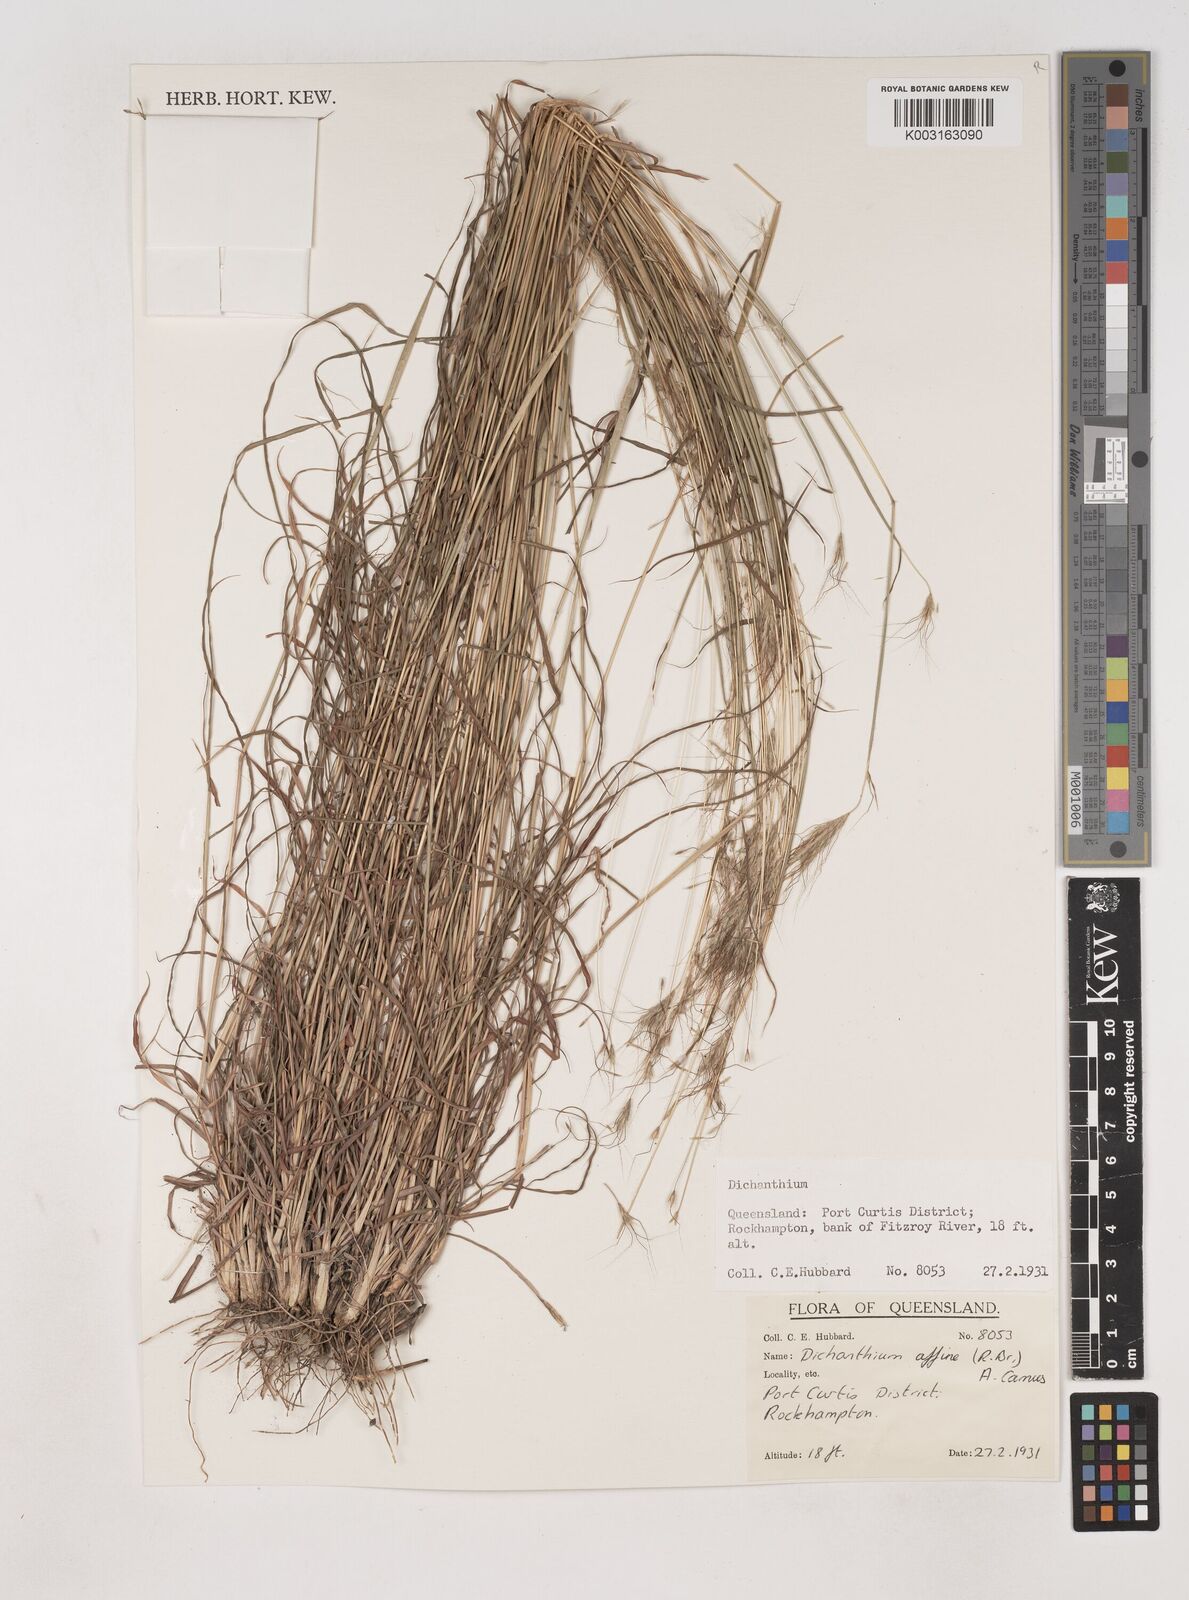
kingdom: Plantae
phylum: Tracheophyta
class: Liliopsida
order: Poales
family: Poaceae
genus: Dichanthium
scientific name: Dichanthium sericeum
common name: Silky bluestem
